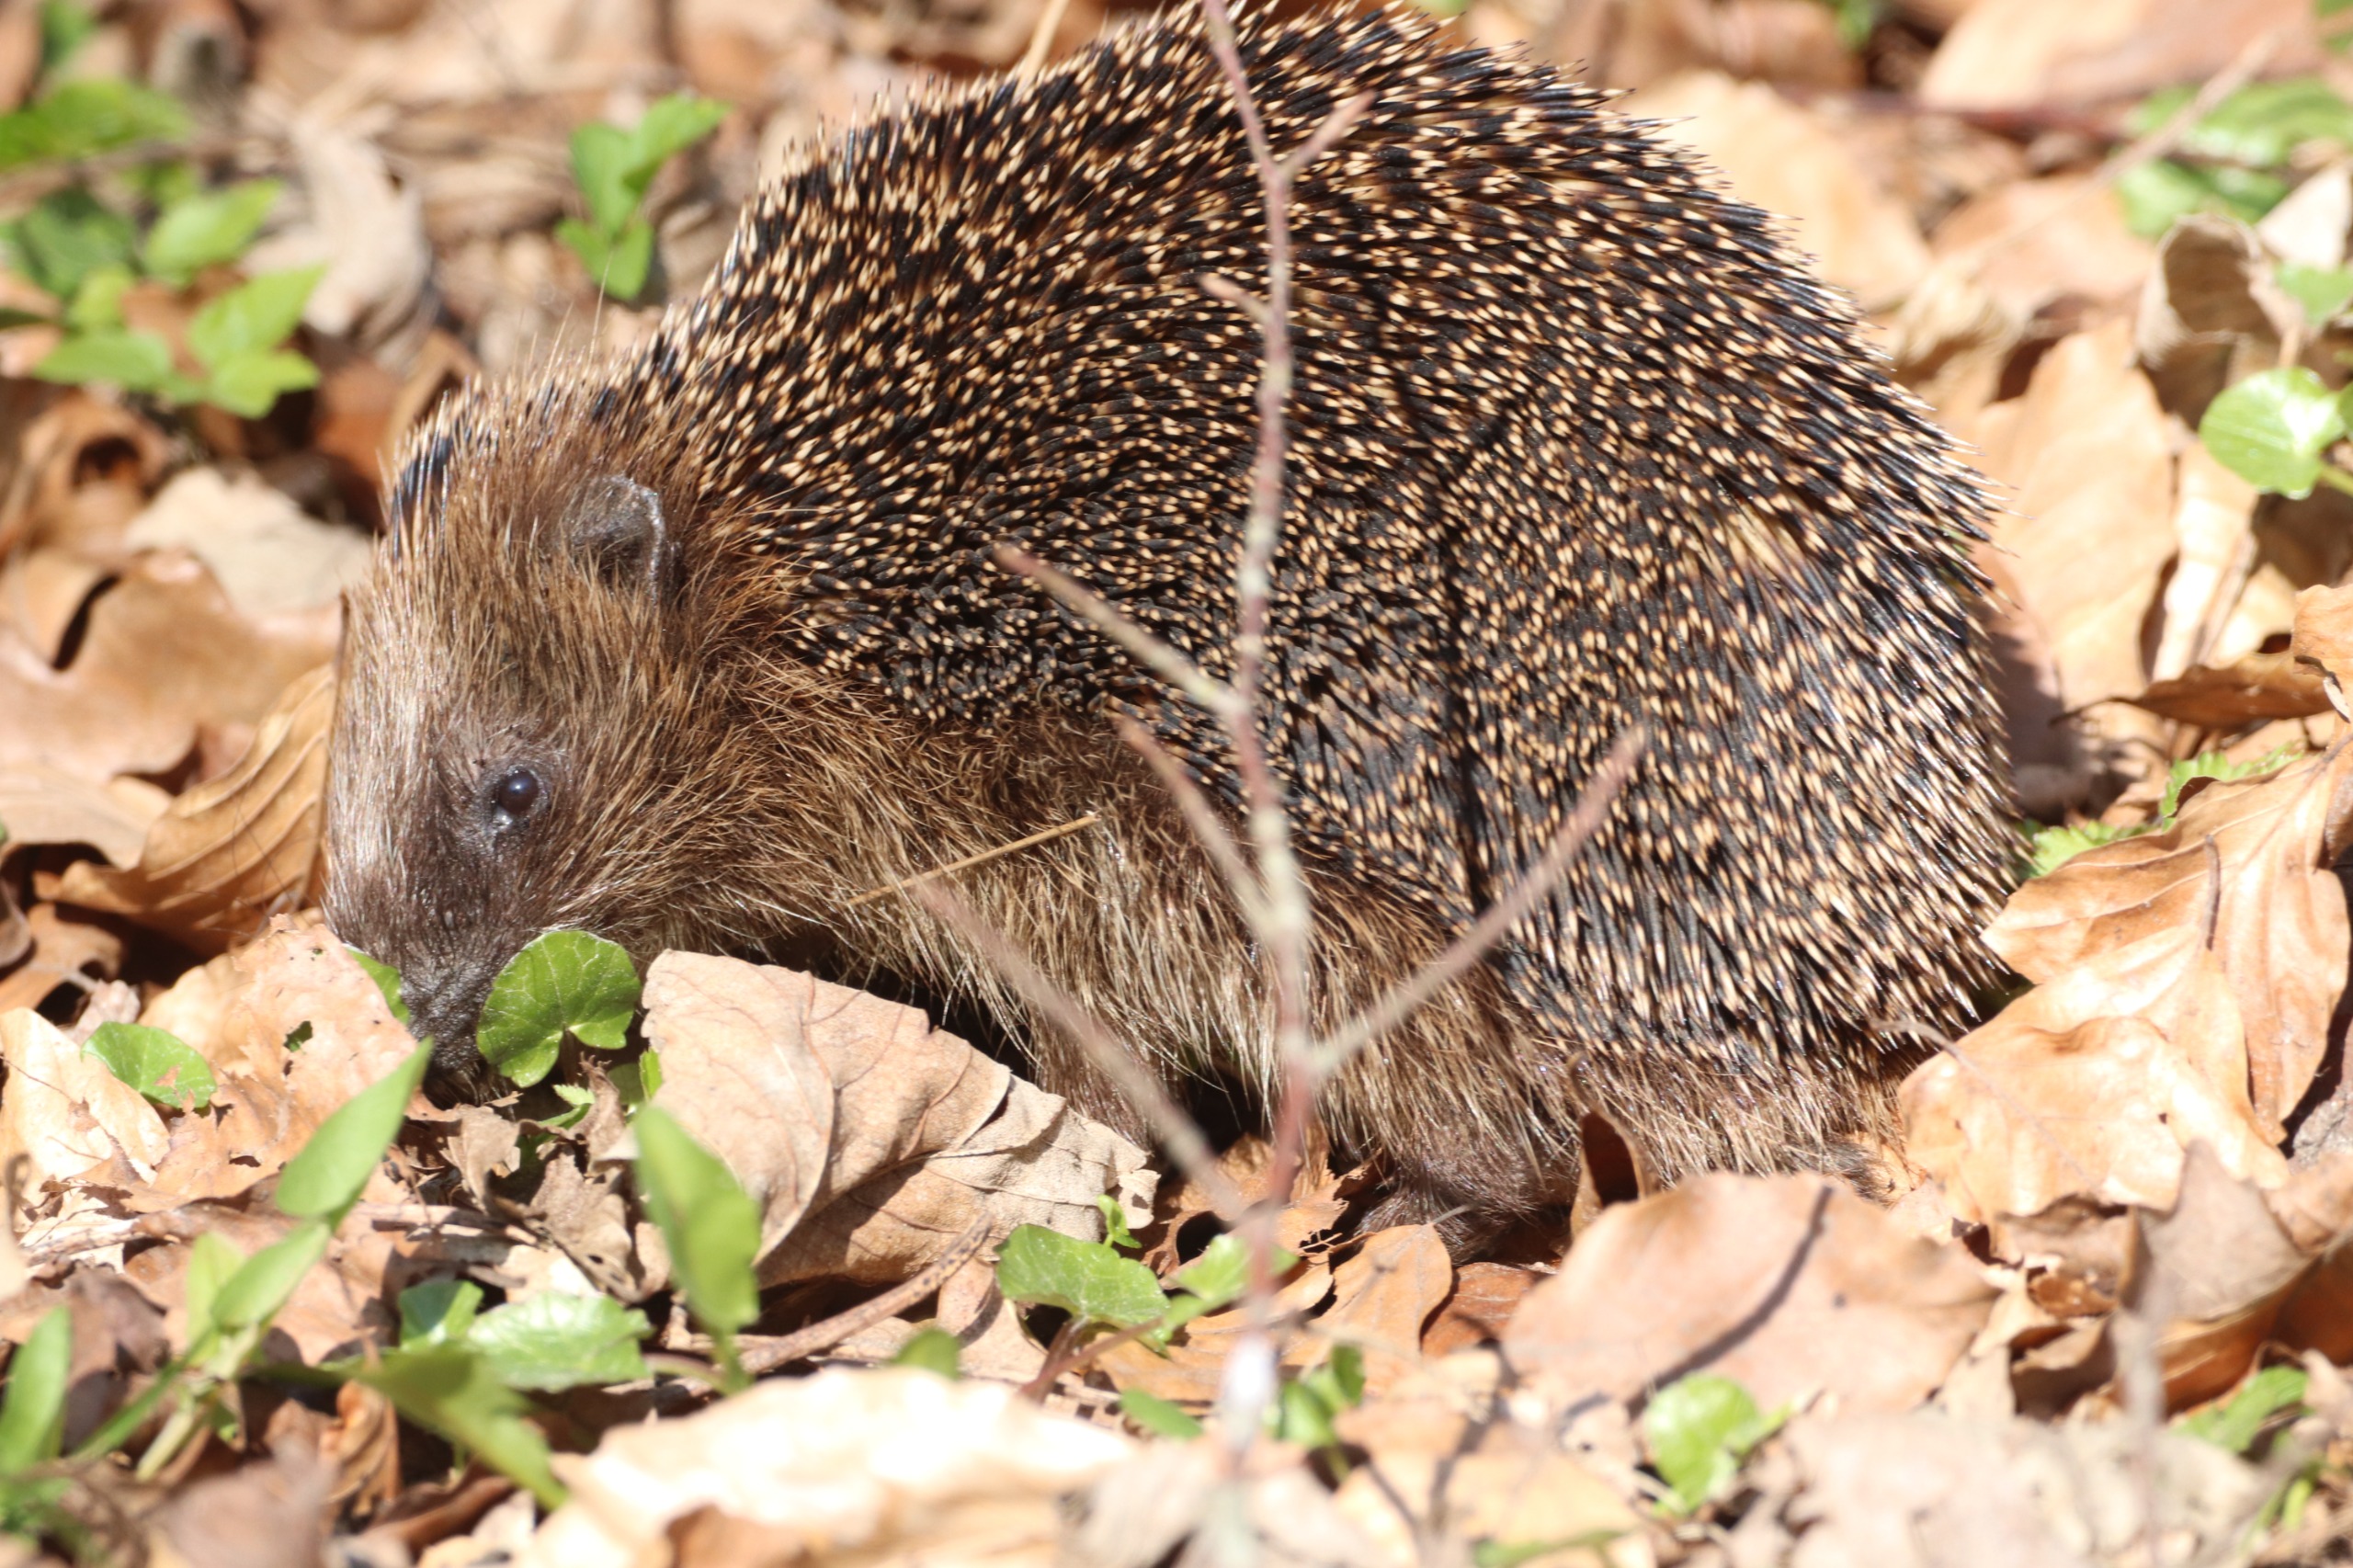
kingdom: Animalia
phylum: Chordata
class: Mammalia
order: Erinaceomorpha
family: Erinaceidae
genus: Erinaceus
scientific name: Erinaceus europaeus
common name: Pindsvin
